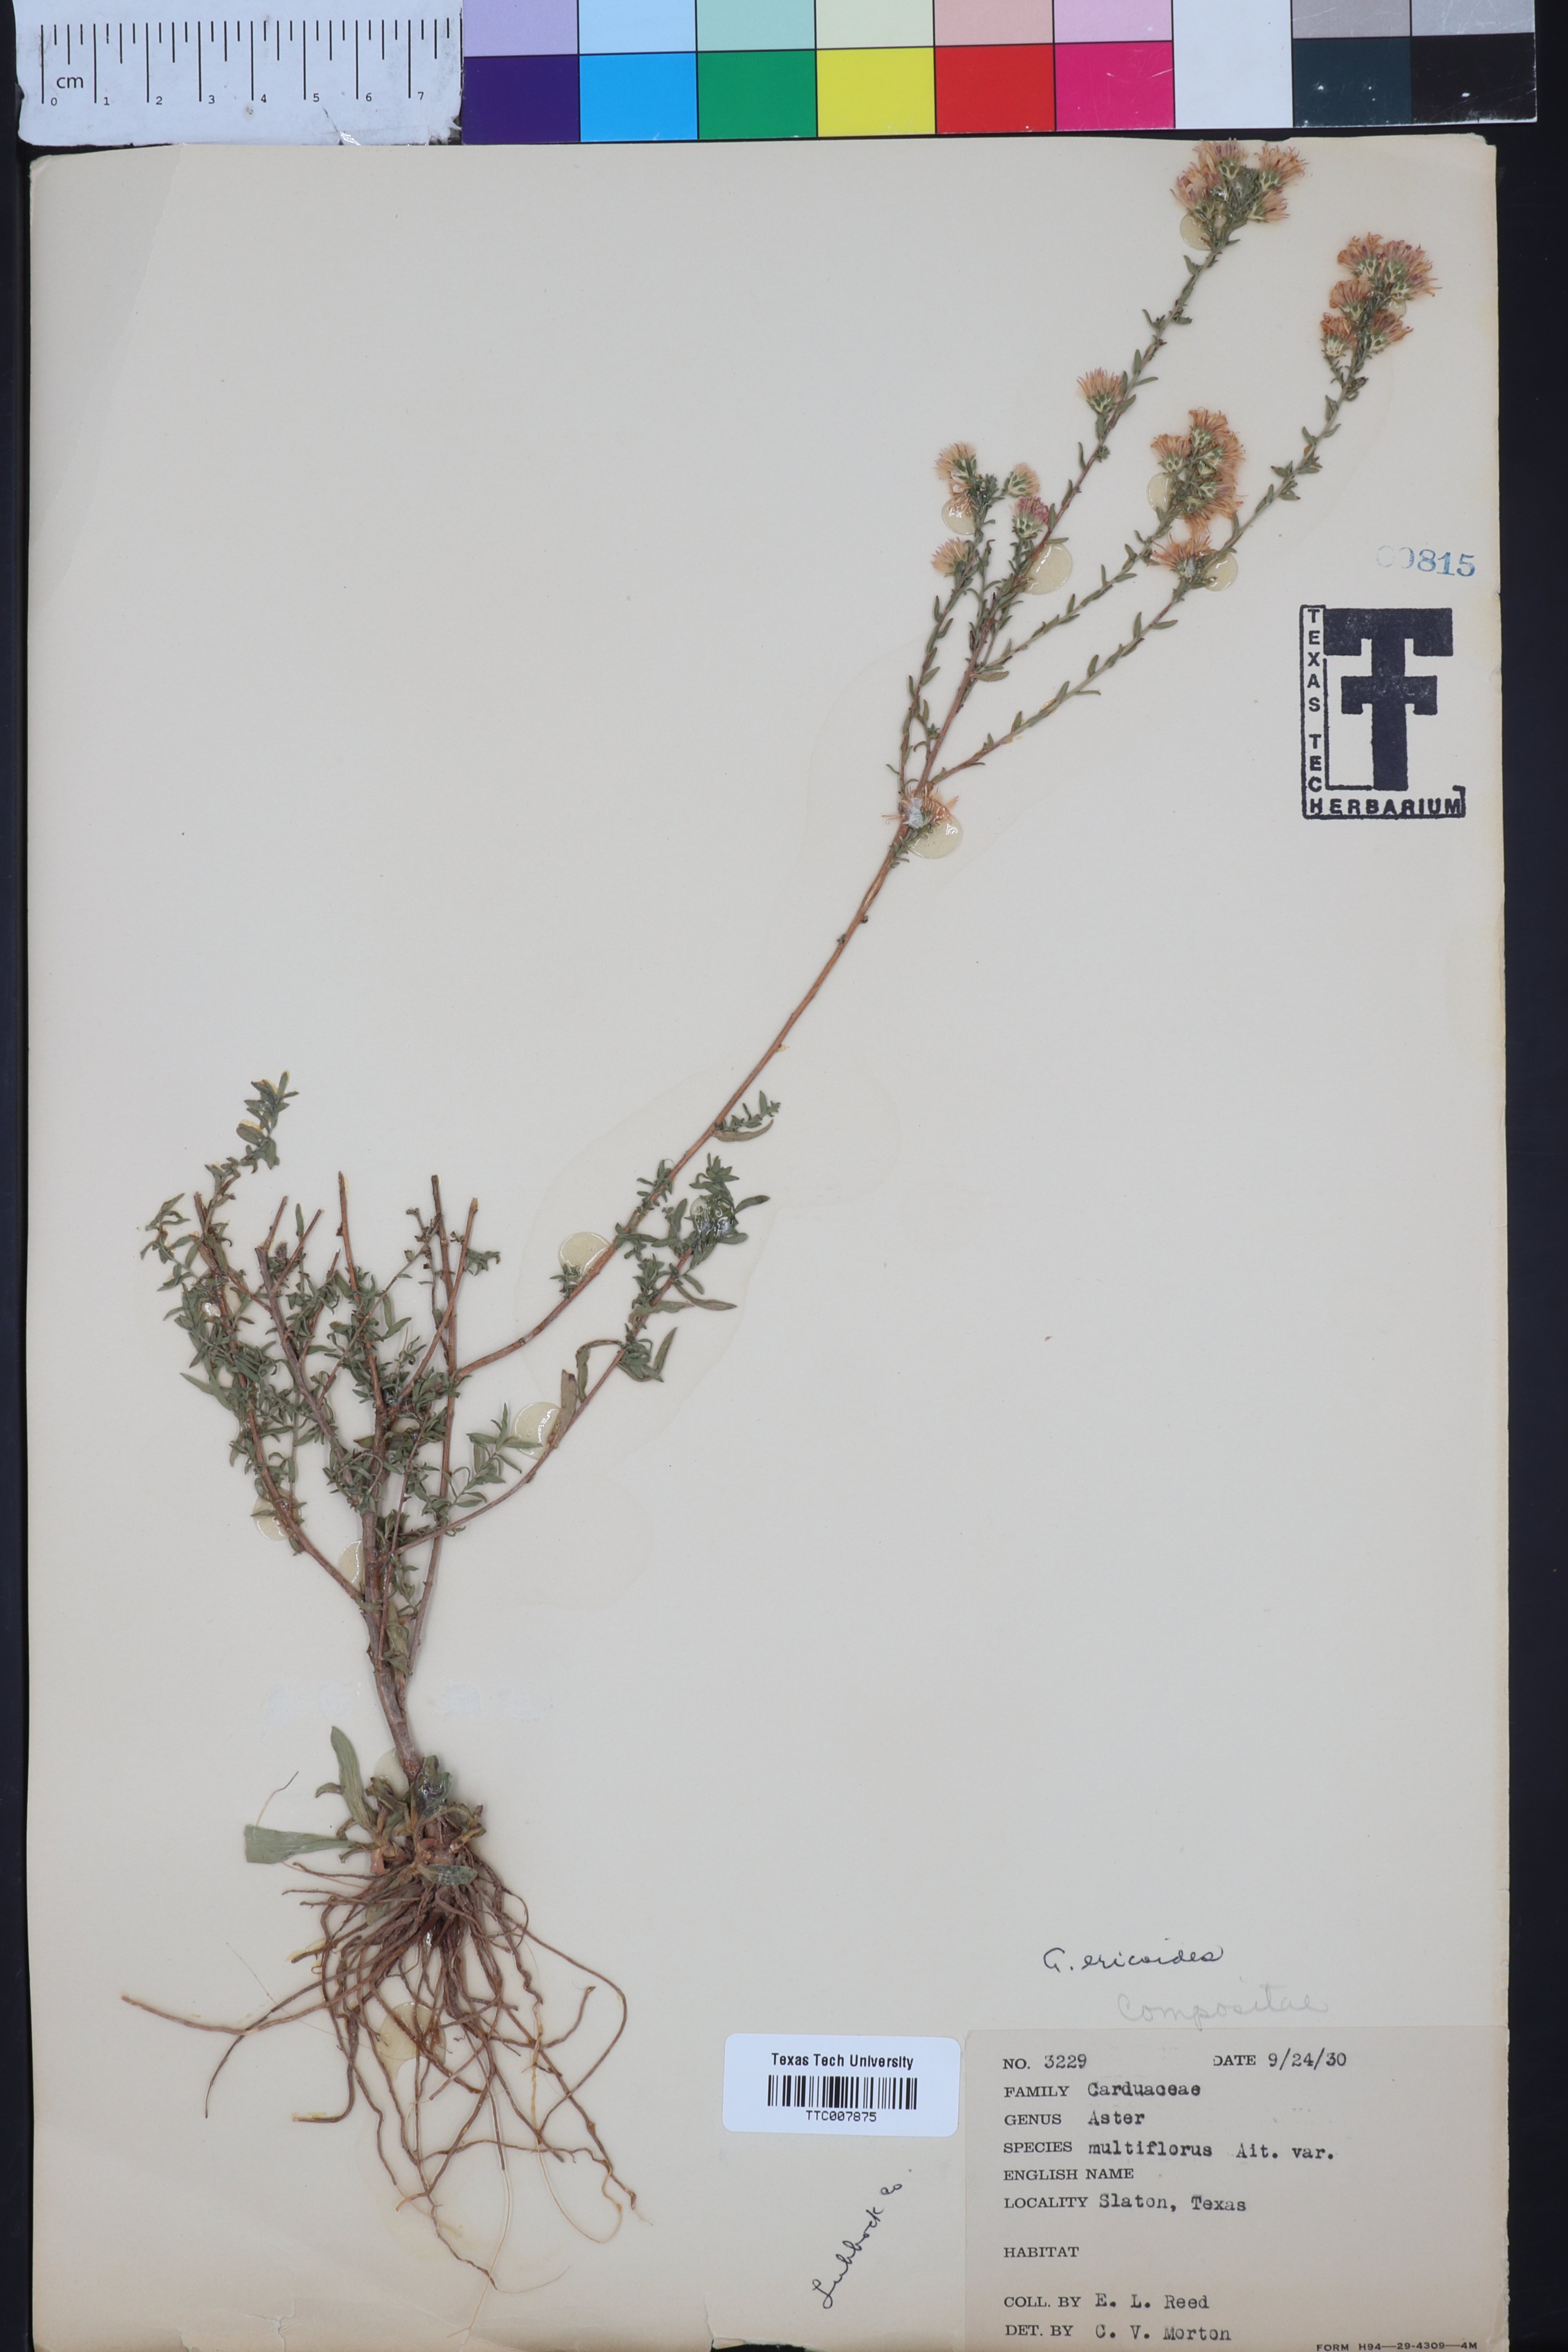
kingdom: Plantae
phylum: Tracheophyta
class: Magnoliopsida
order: Asterales
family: Asteraceae
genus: Symphyotrichum
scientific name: Symphyotrichum ericoides
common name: Heath aster
